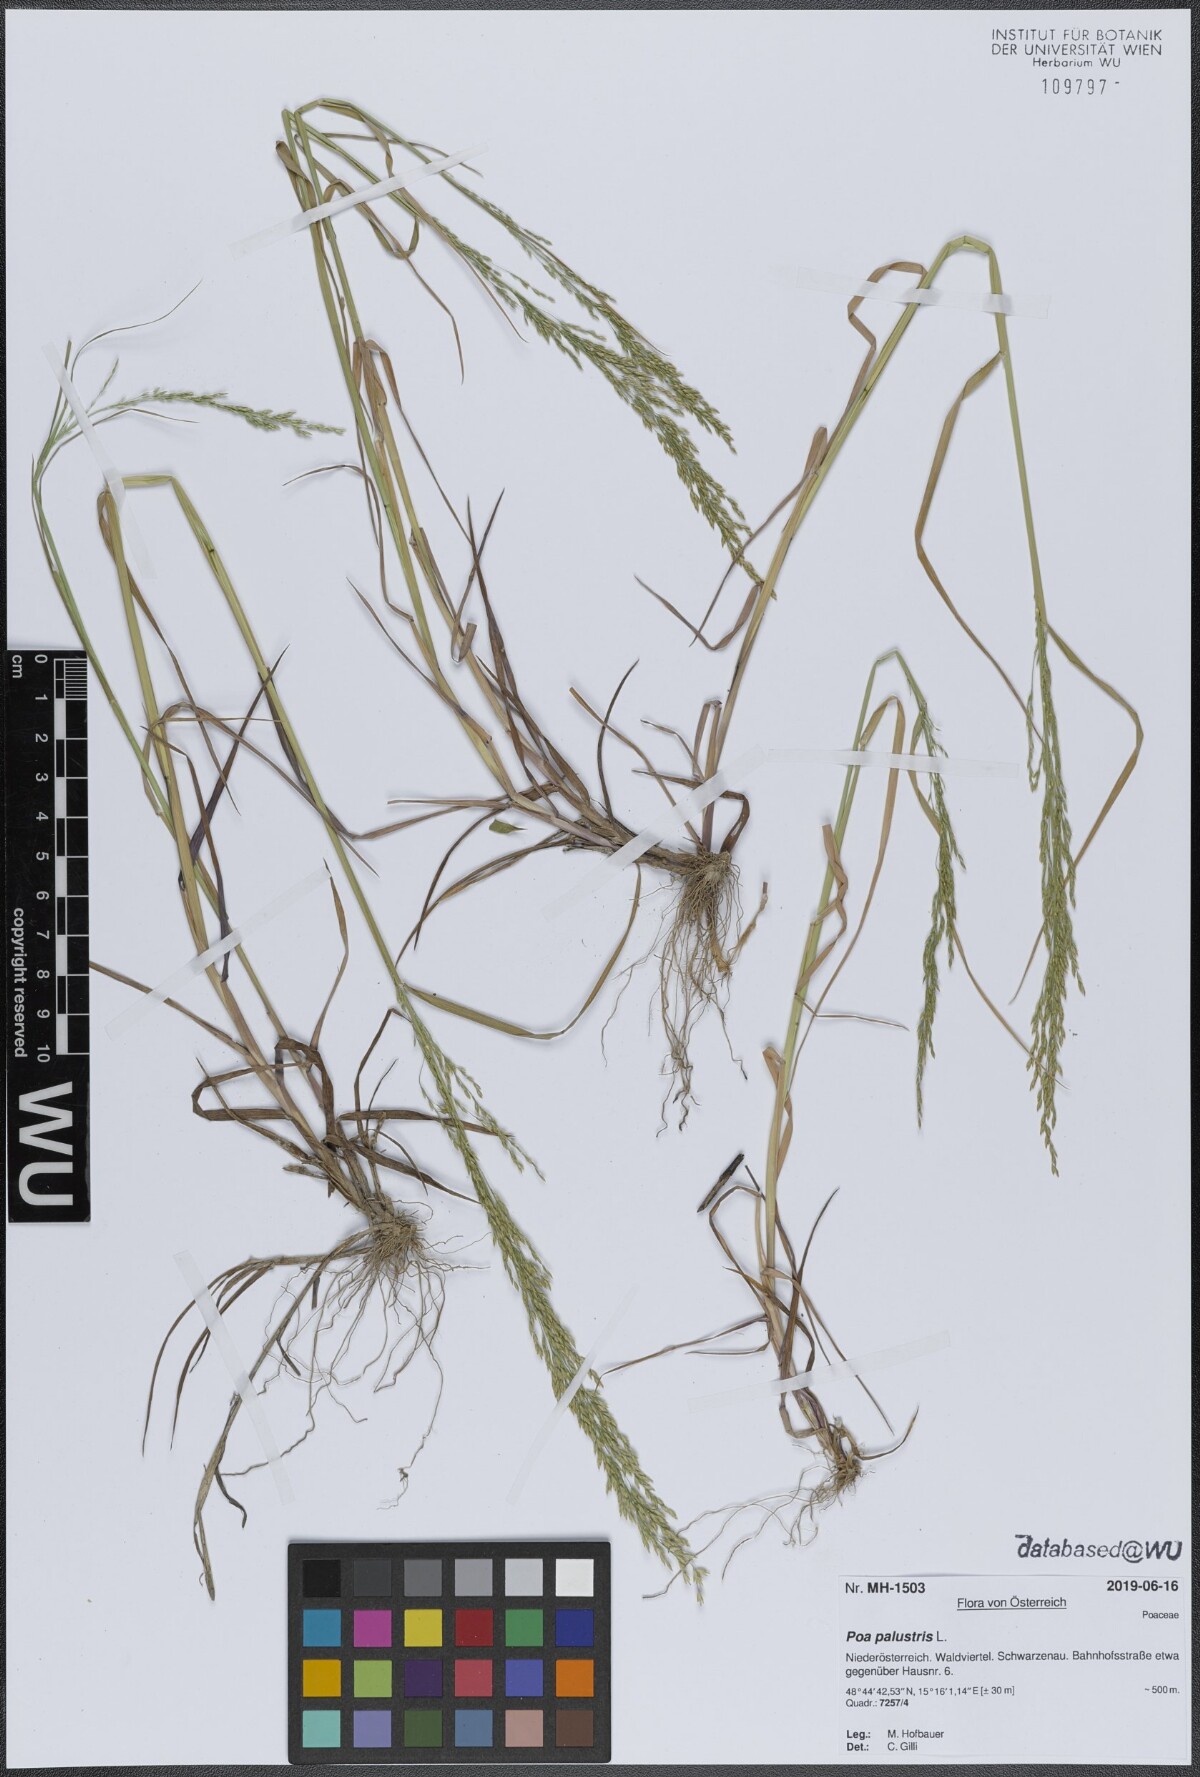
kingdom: Plantae
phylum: Tracheophyta
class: Liliopsida
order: Poales
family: Poaceae
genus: Poa
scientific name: Poa palustris
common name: Swamp meadow-grass
